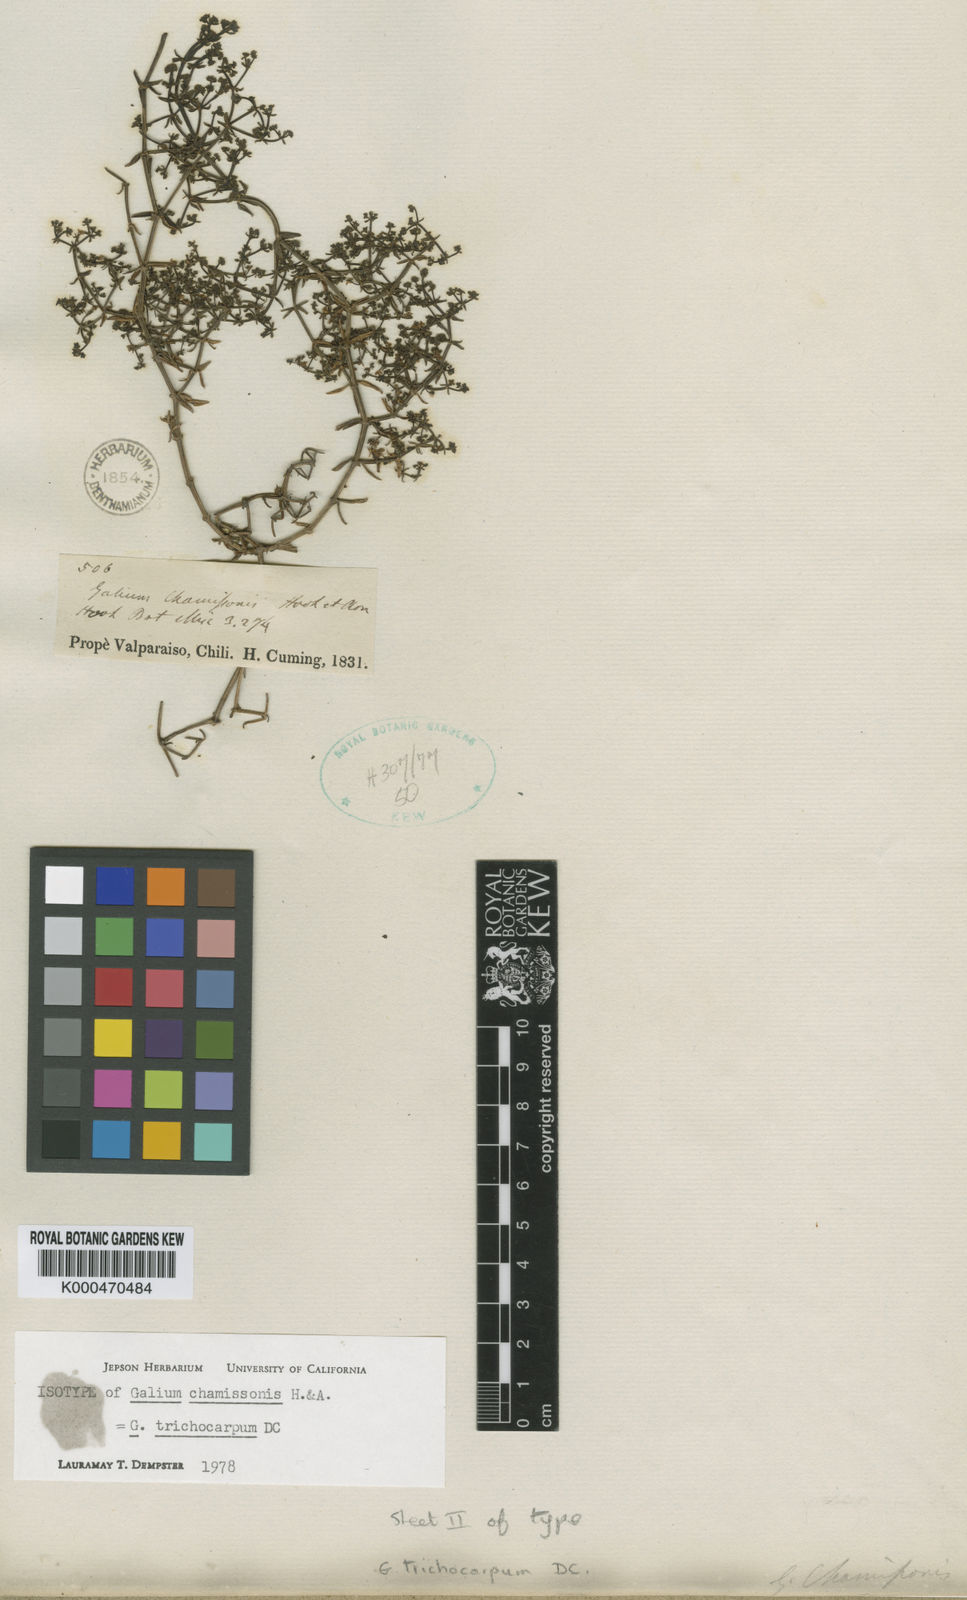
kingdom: Plantae
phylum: Tracheophyta
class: Magnoliopsida
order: Gentianales
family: Rubiaceae
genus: Galium
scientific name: Galium trichocarpum
